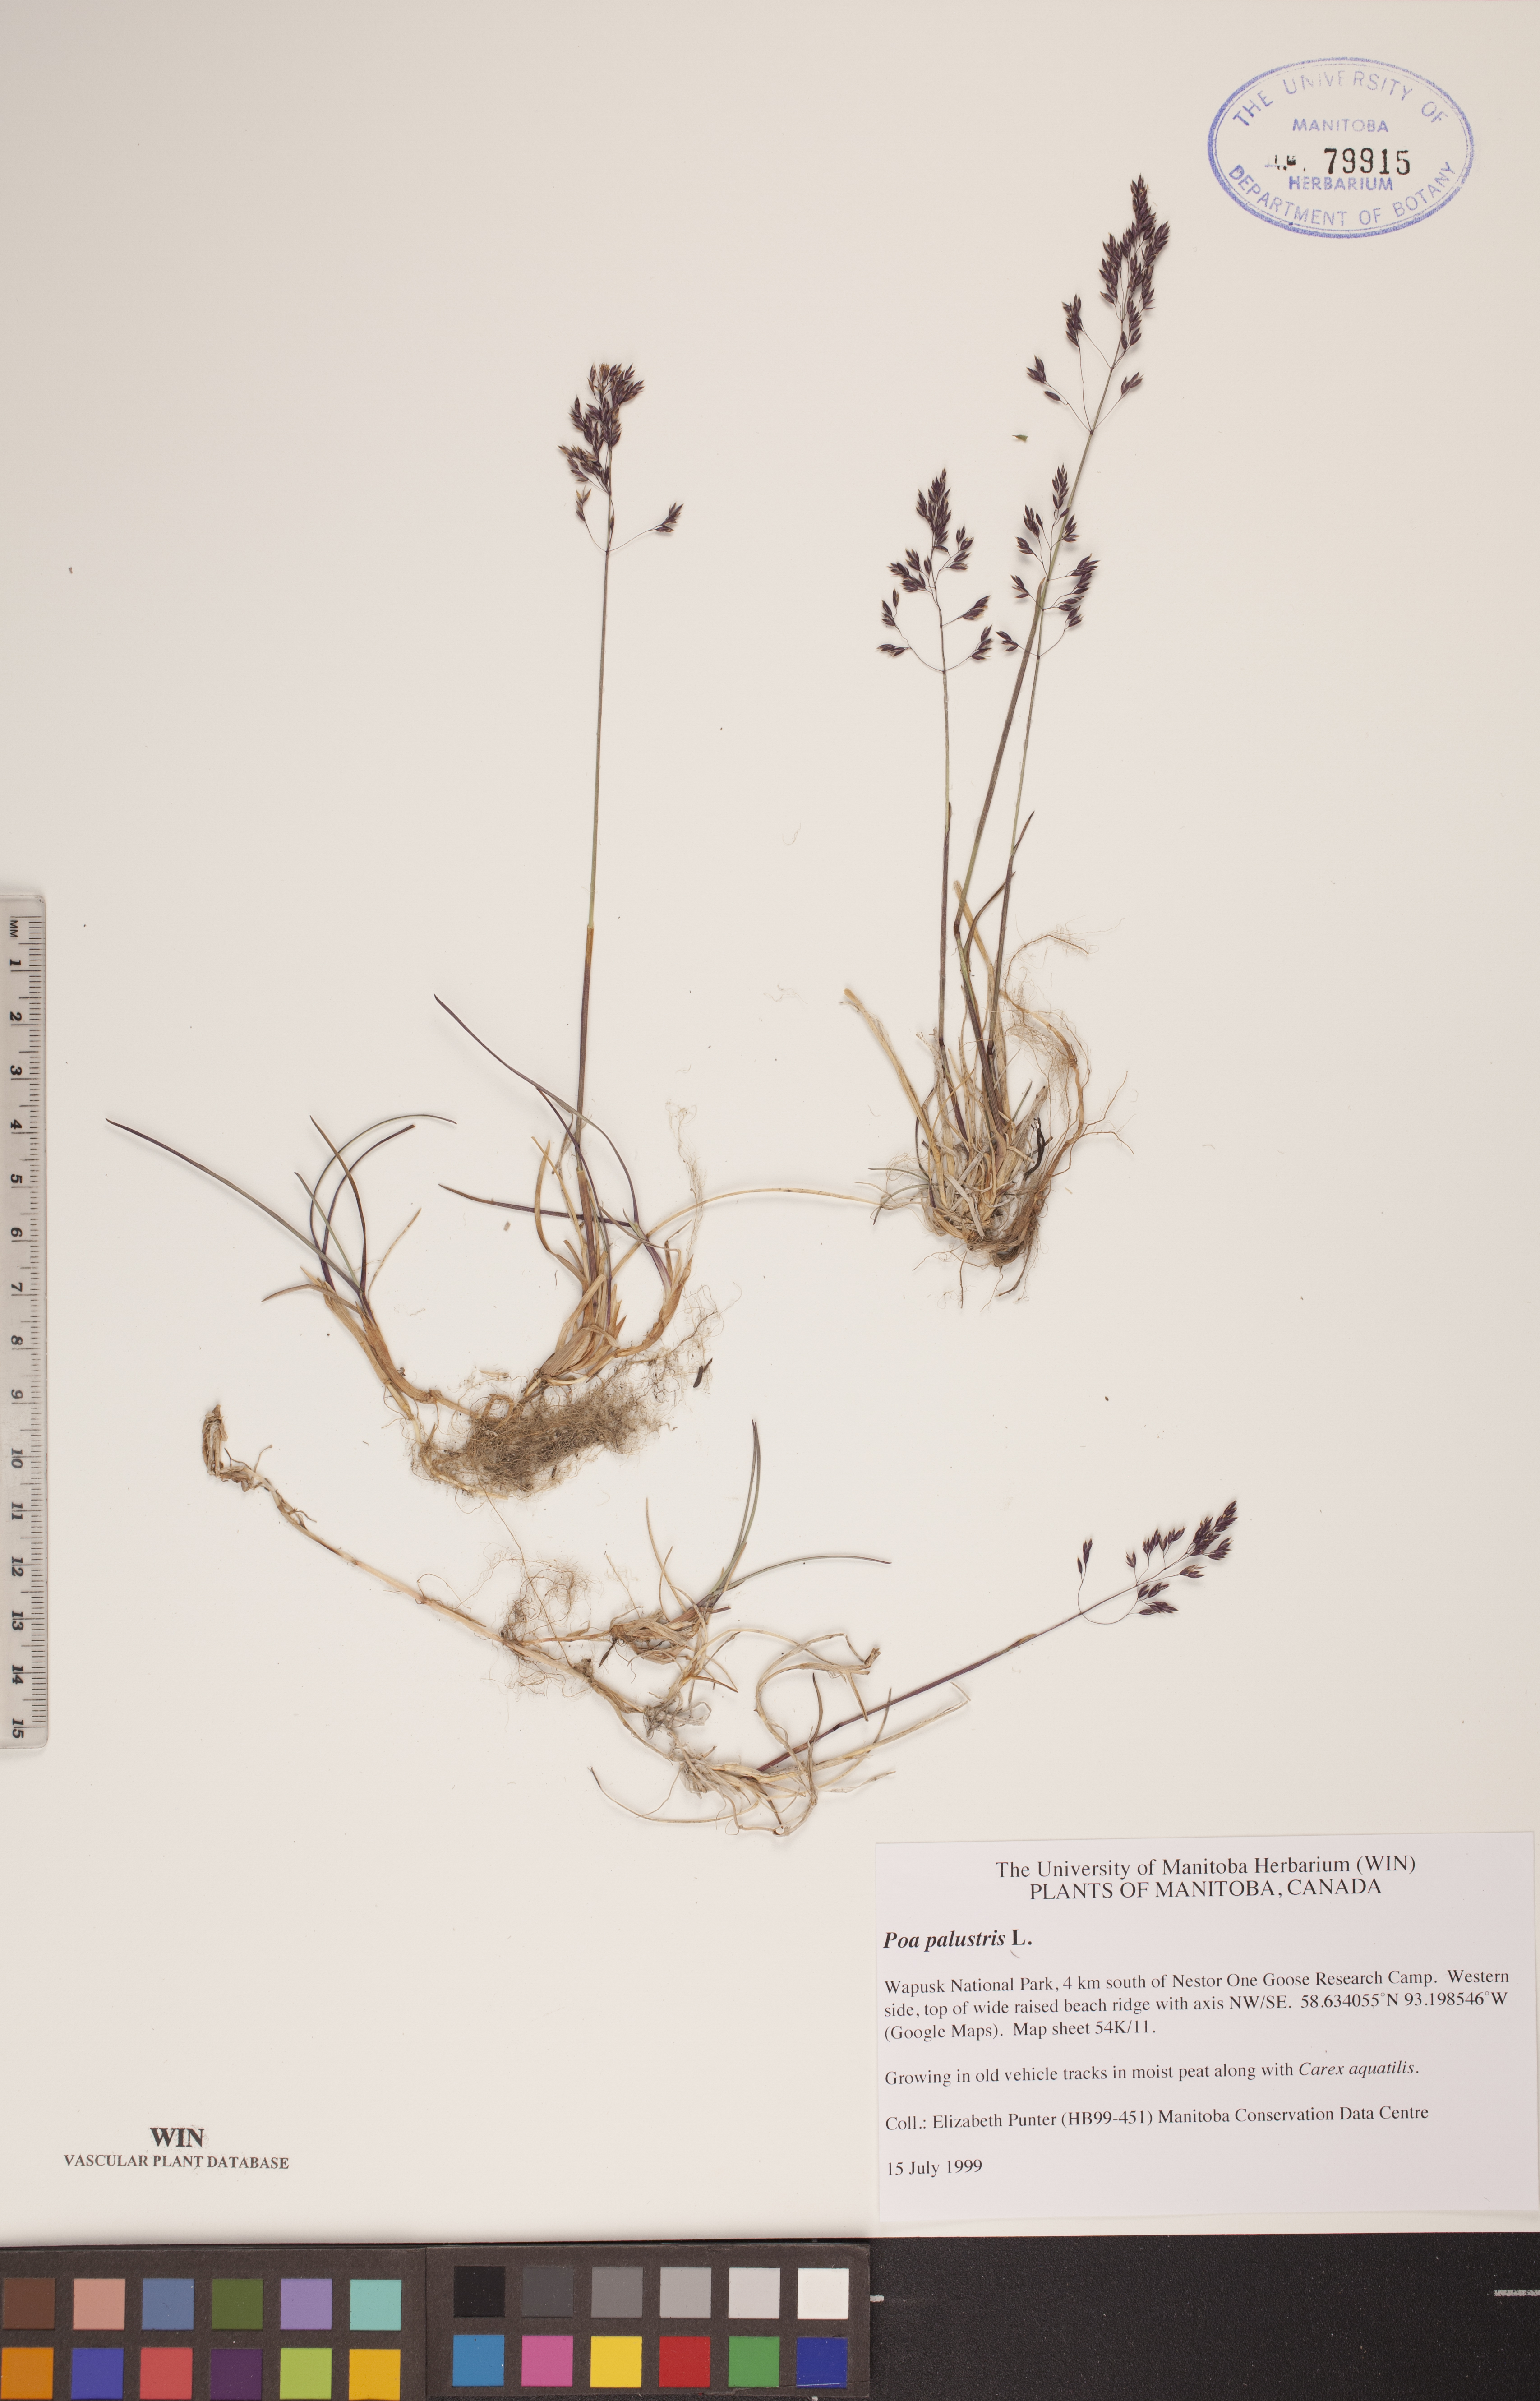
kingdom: Plantae
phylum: Tracheophyta
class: Liliopsida
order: Poales
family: Poaceae
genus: Poa
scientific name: Poa palustris
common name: Swamp meadow-grass
